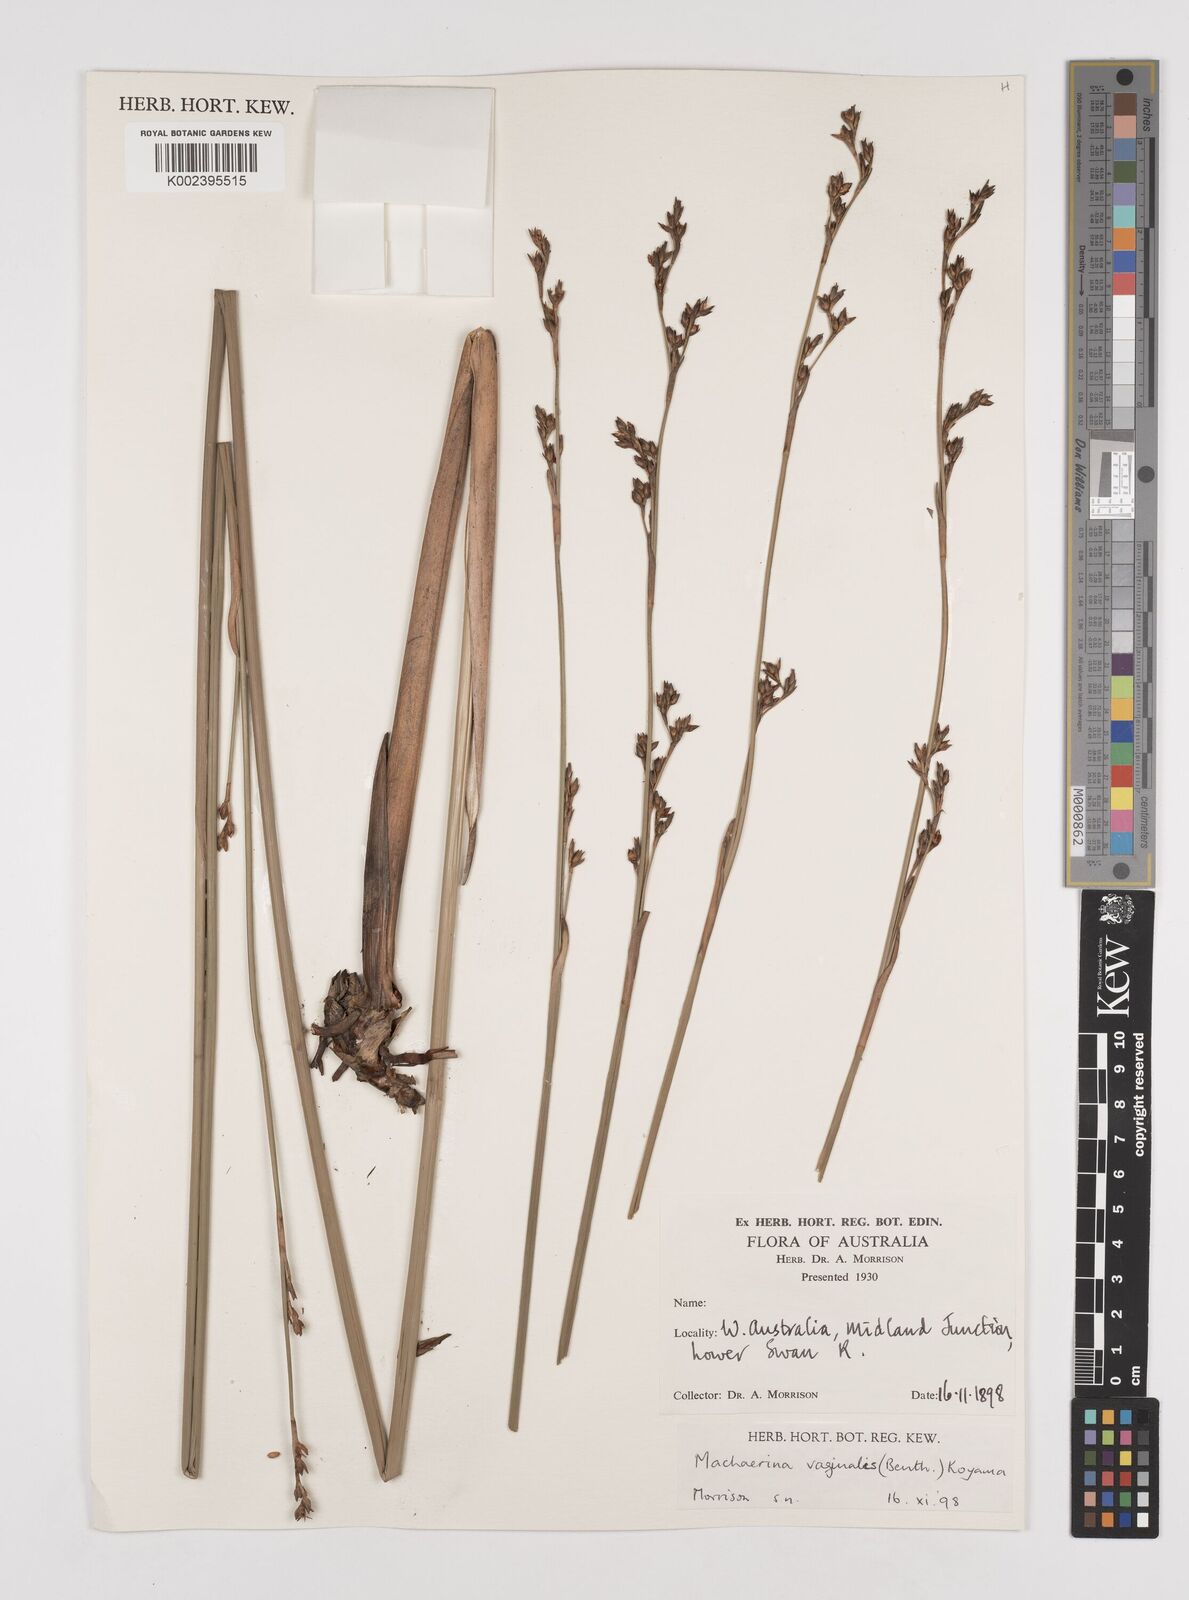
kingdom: Plantae
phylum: Tracheophyta
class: Liliopsida
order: Poales
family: Cyperaceae
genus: Machaerina
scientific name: Machaerina vaginalis
